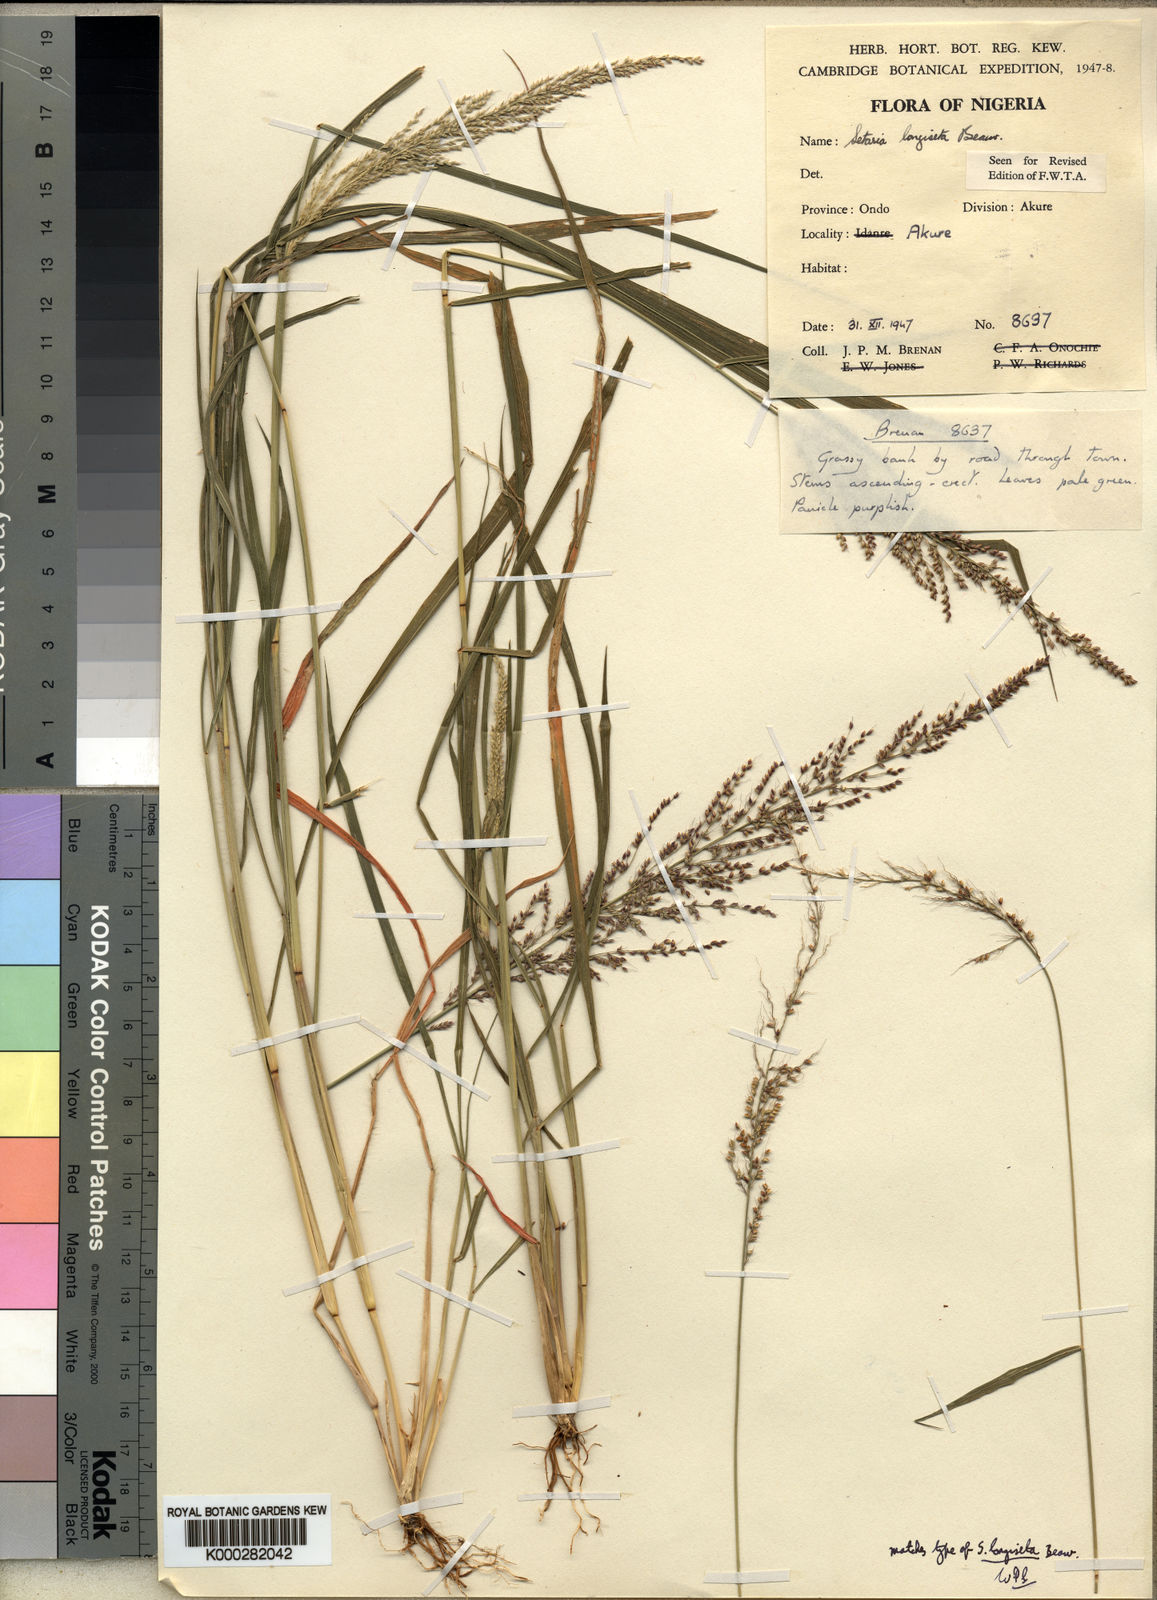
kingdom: Plantae
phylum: Tracheophyta
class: Liliopsida
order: Poales
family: Poaceae
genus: Setaria
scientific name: Setaria longiseta
